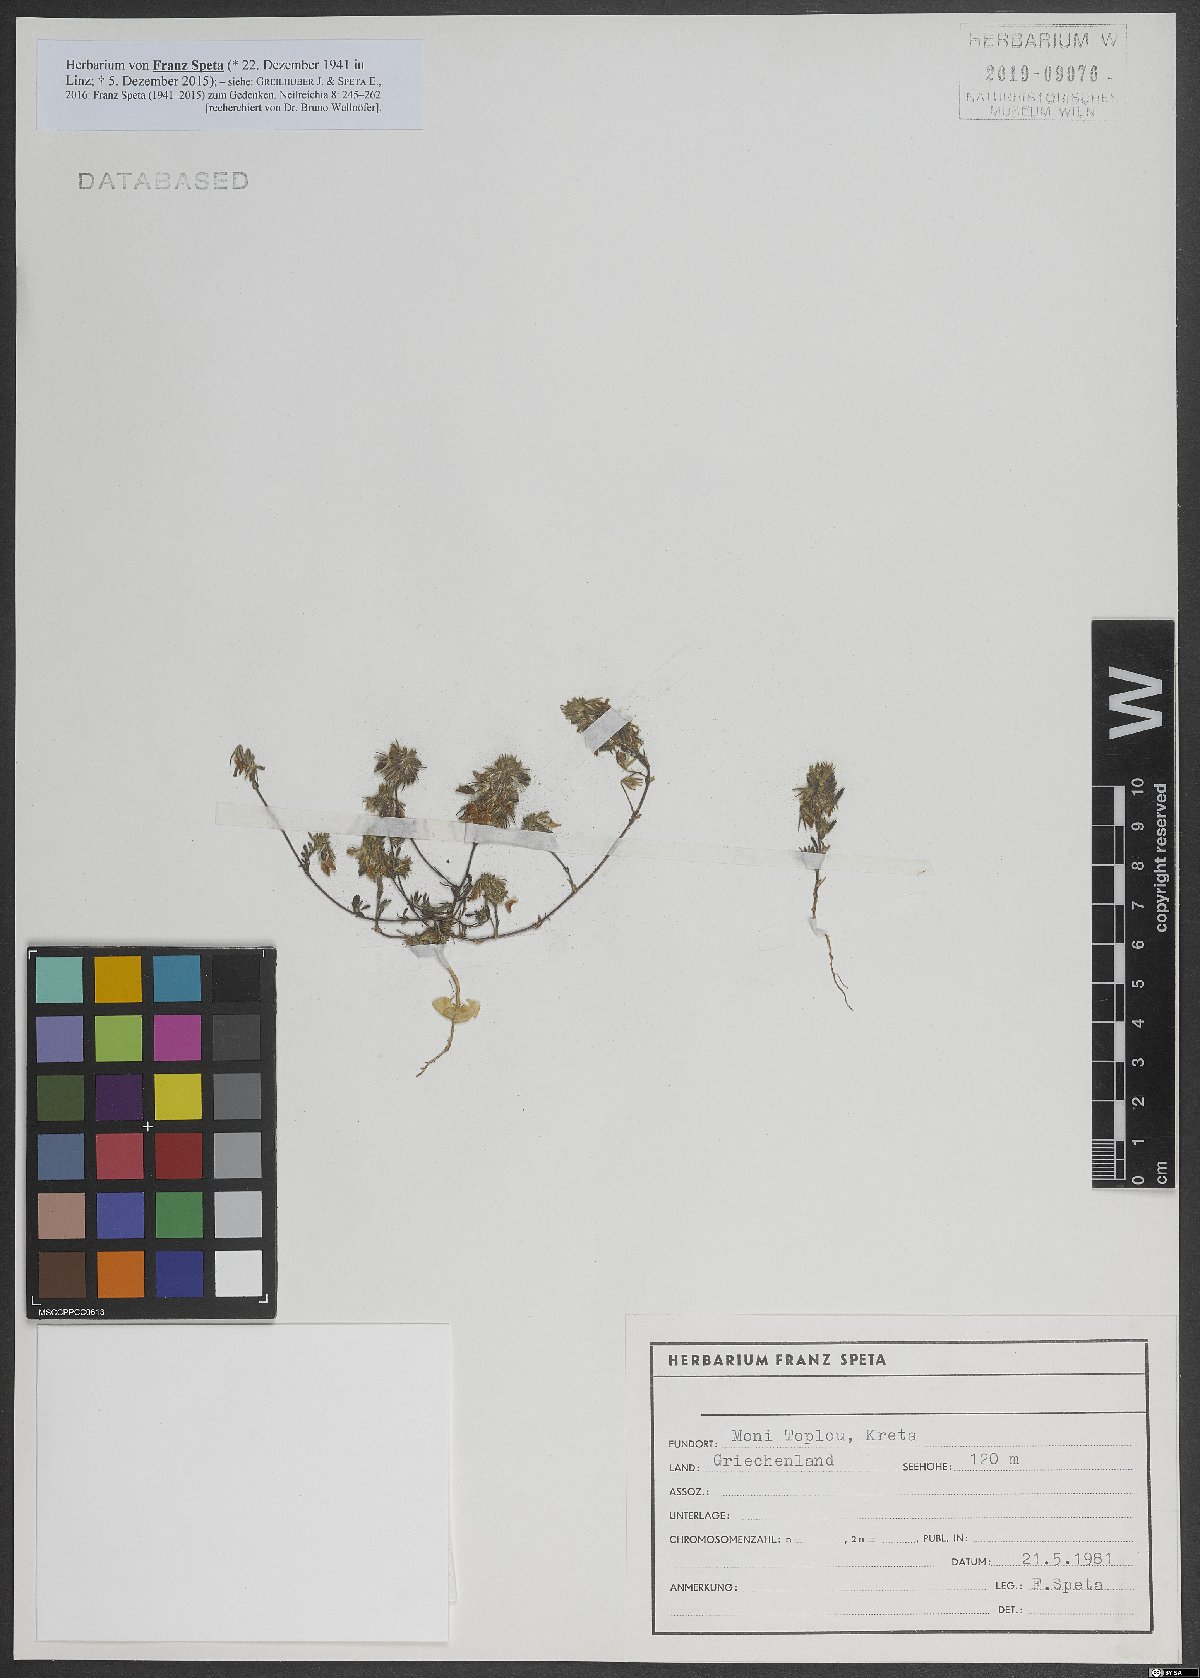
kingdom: Plantae
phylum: Tracheophyta
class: Magnoliopsida
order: Fabales
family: Fabaceae
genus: Ononis
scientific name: Ononis
